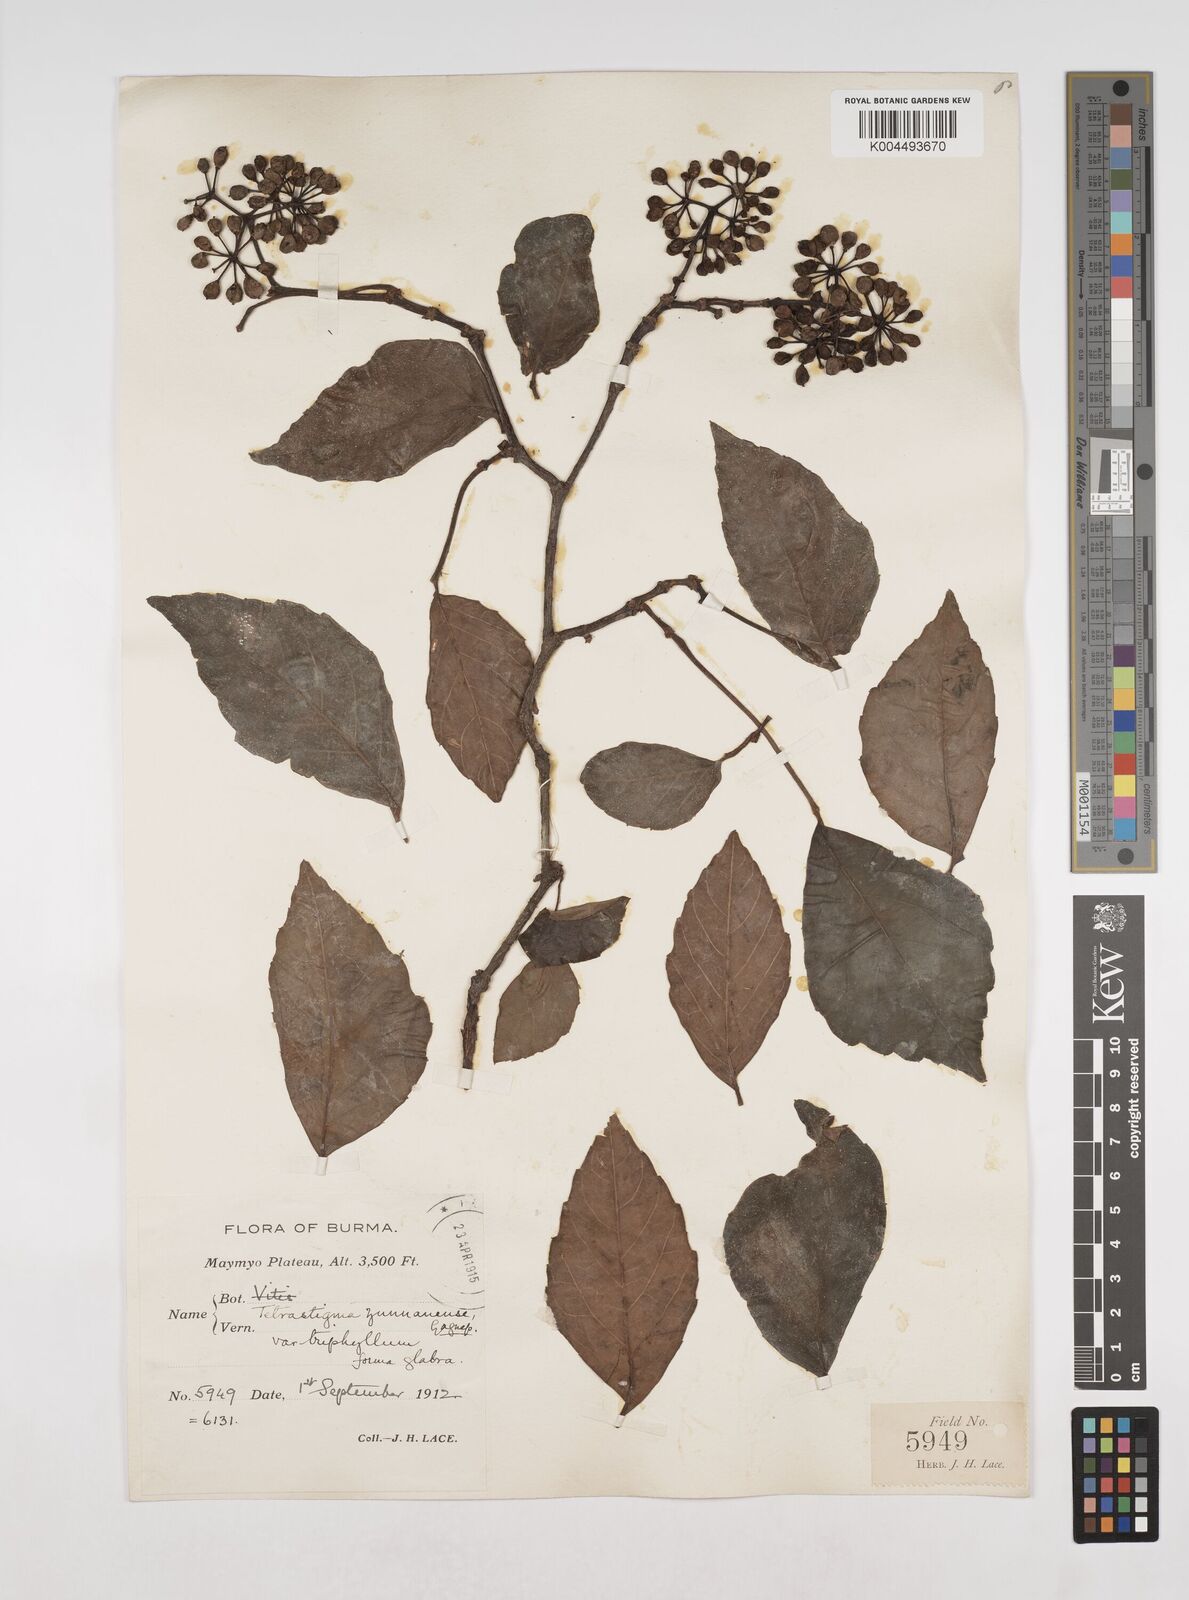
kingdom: Plantae
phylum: Tracheophyta
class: Magnoliopsida
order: Vitales
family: Vitaceae
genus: Tetrastigma
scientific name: Tetrastigma yunnanense
